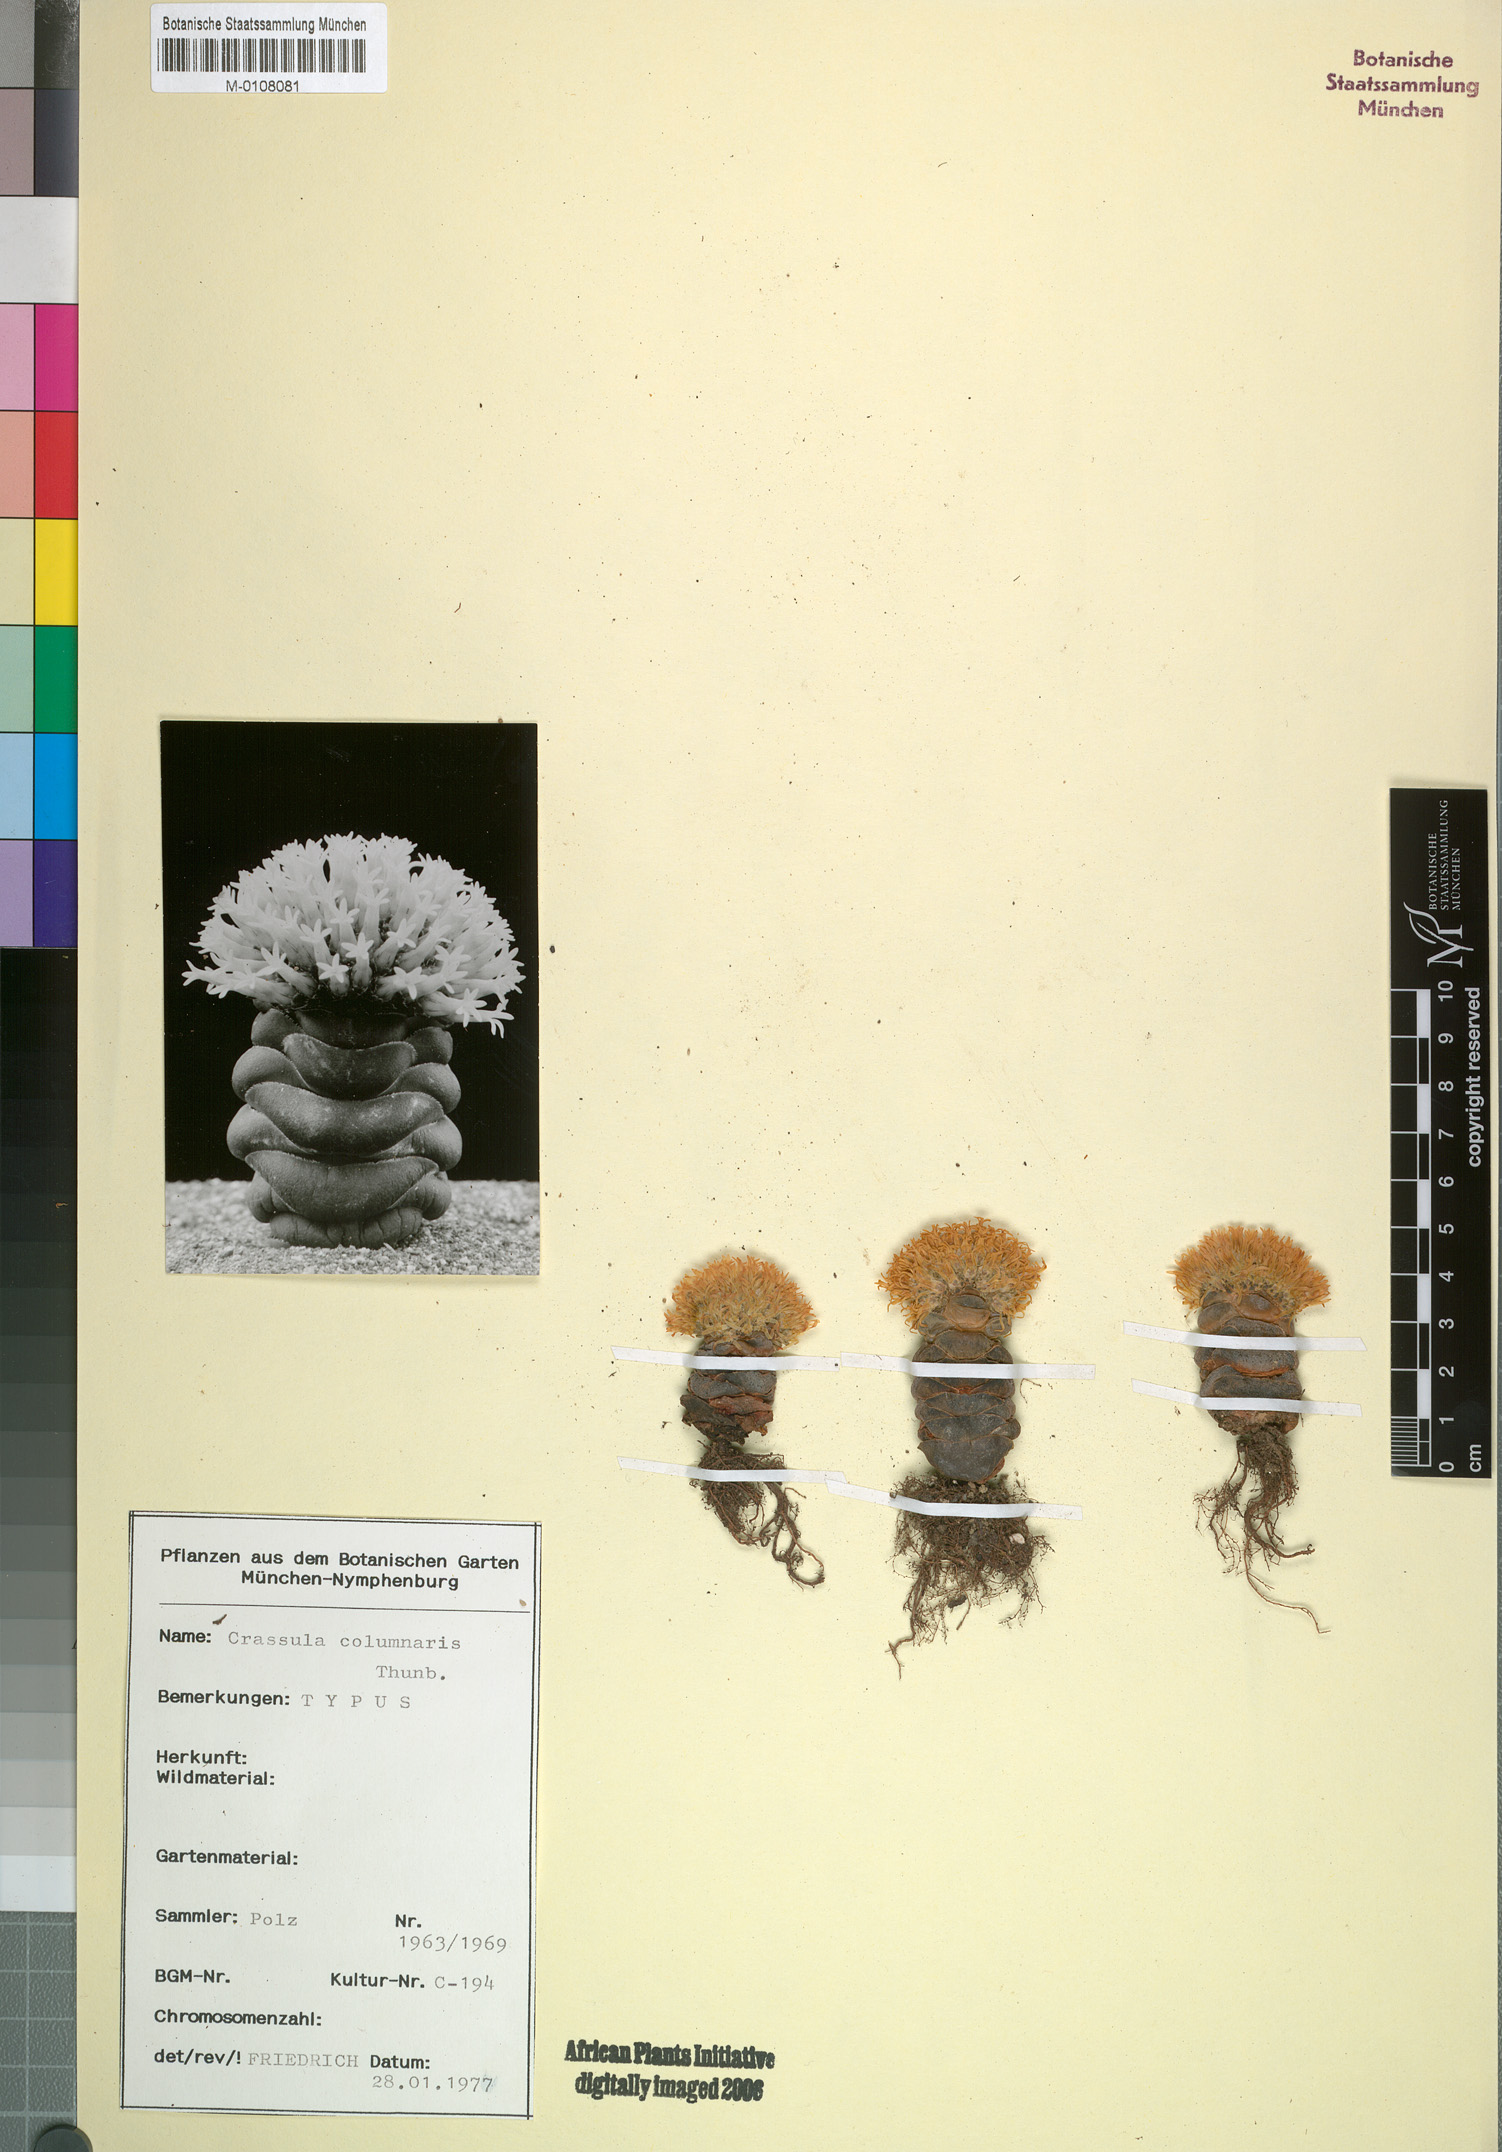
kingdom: Plantae
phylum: Tracheophyta
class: Magnoliopsida
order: Saxifragales
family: Crassulaceae
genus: Crassula
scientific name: Crassula columnaris
